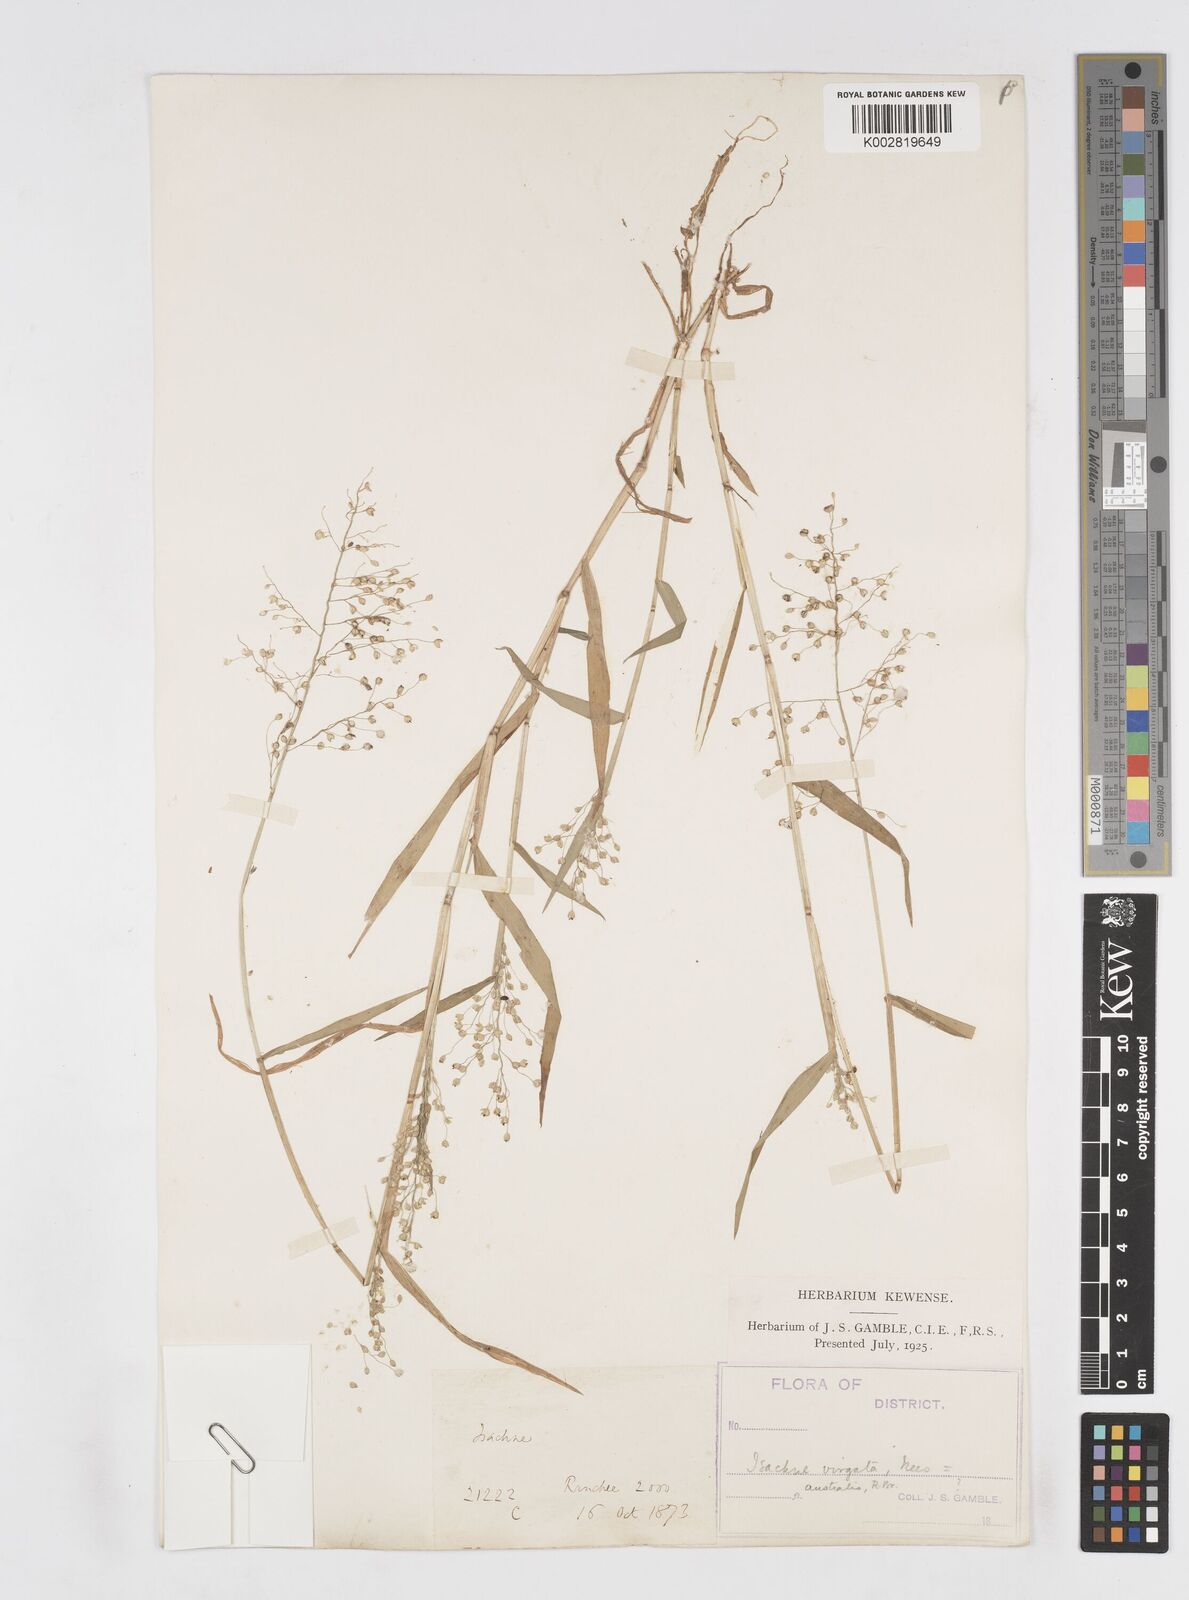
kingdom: Plantae
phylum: Tracheophyta
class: Liliopsida
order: Poales
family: Poaceae
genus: Isachne
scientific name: Isachne globosa
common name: Swamp millet
